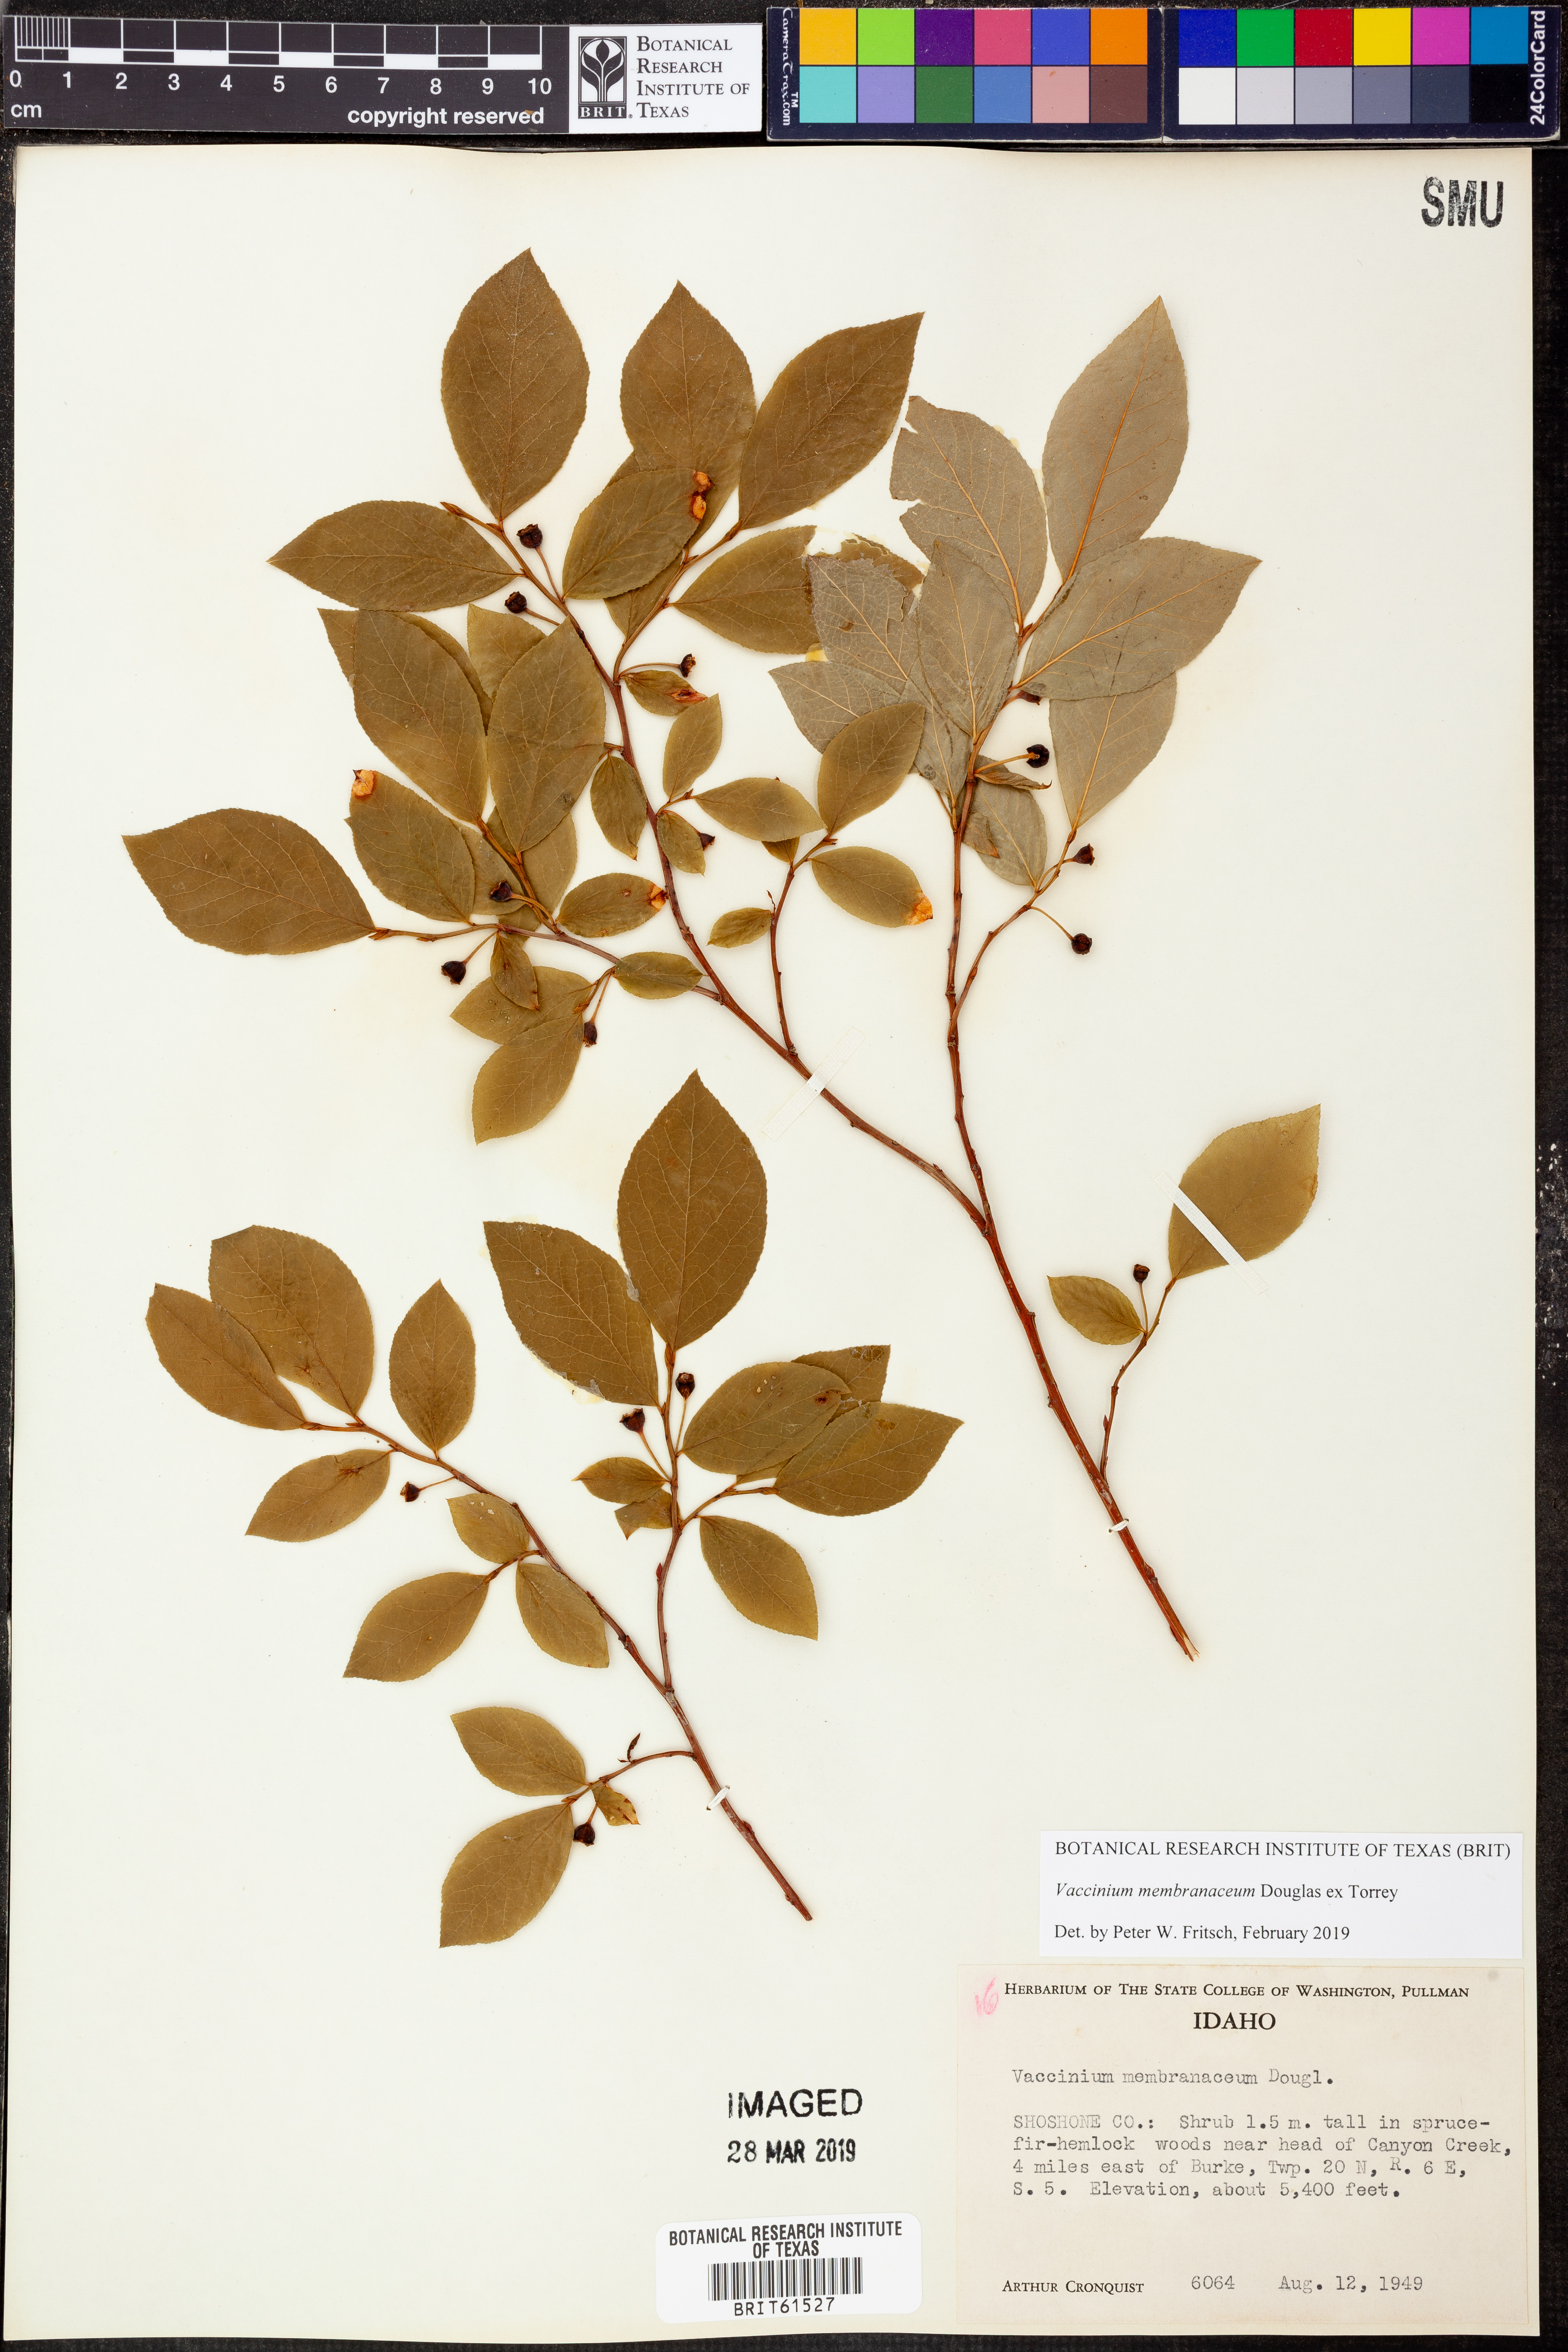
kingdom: Plantae
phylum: Tracheophyta
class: Magnoliopsida
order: Ericales
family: Ericaceae
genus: Vaccinium
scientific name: Vaccinium membranaceum
